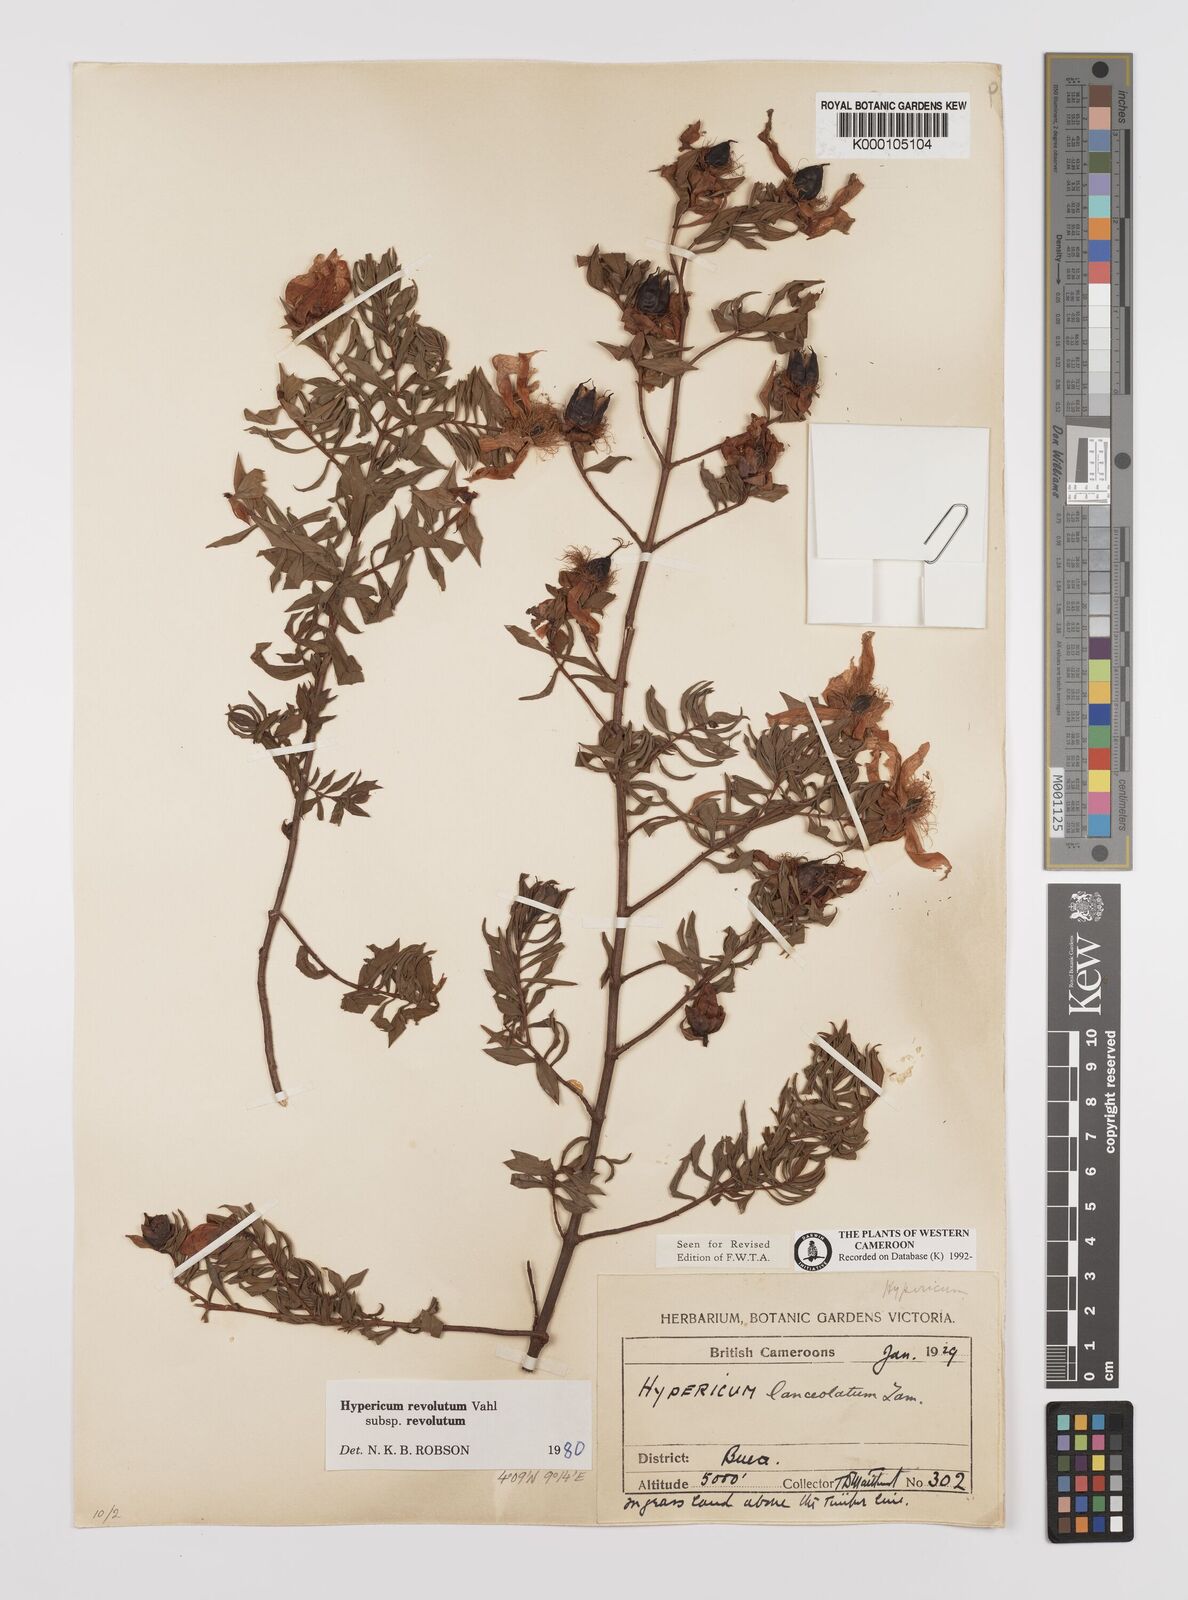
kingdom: Plantae
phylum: Tracheophyta
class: Magnoliopsida
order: Malpighiales
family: Hypericaceae
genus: Hypericum
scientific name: Hypericum revolutum
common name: Curry bush
